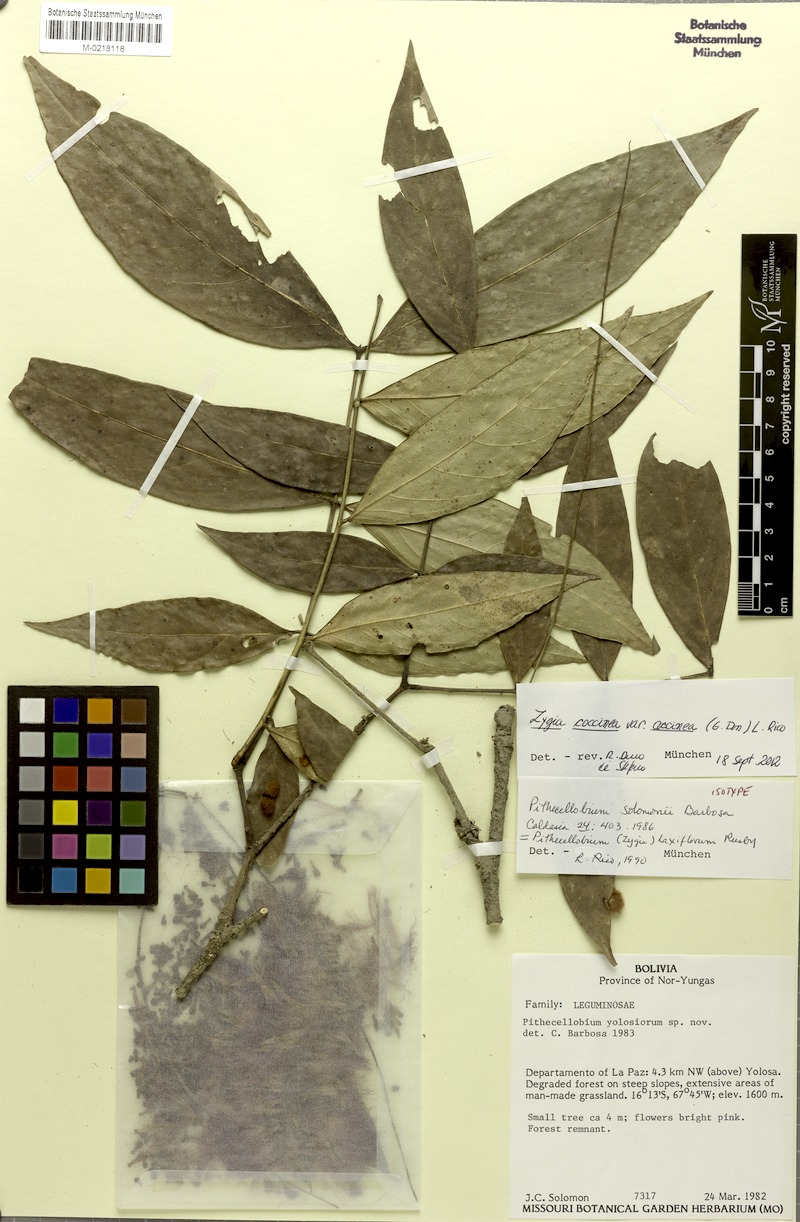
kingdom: Plantae
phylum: Tracheophyta
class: Magnoliopsida
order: Fabales
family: Fabaceae
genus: Zygia
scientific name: Zygia coccinea
